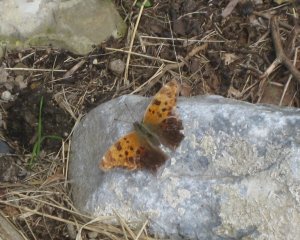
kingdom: Animalia
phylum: Arthropoda
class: Insecta
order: Lepidoptera
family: Nymphalidae
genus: Polygonia
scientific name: Polygonia comma
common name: Eastern Comma
